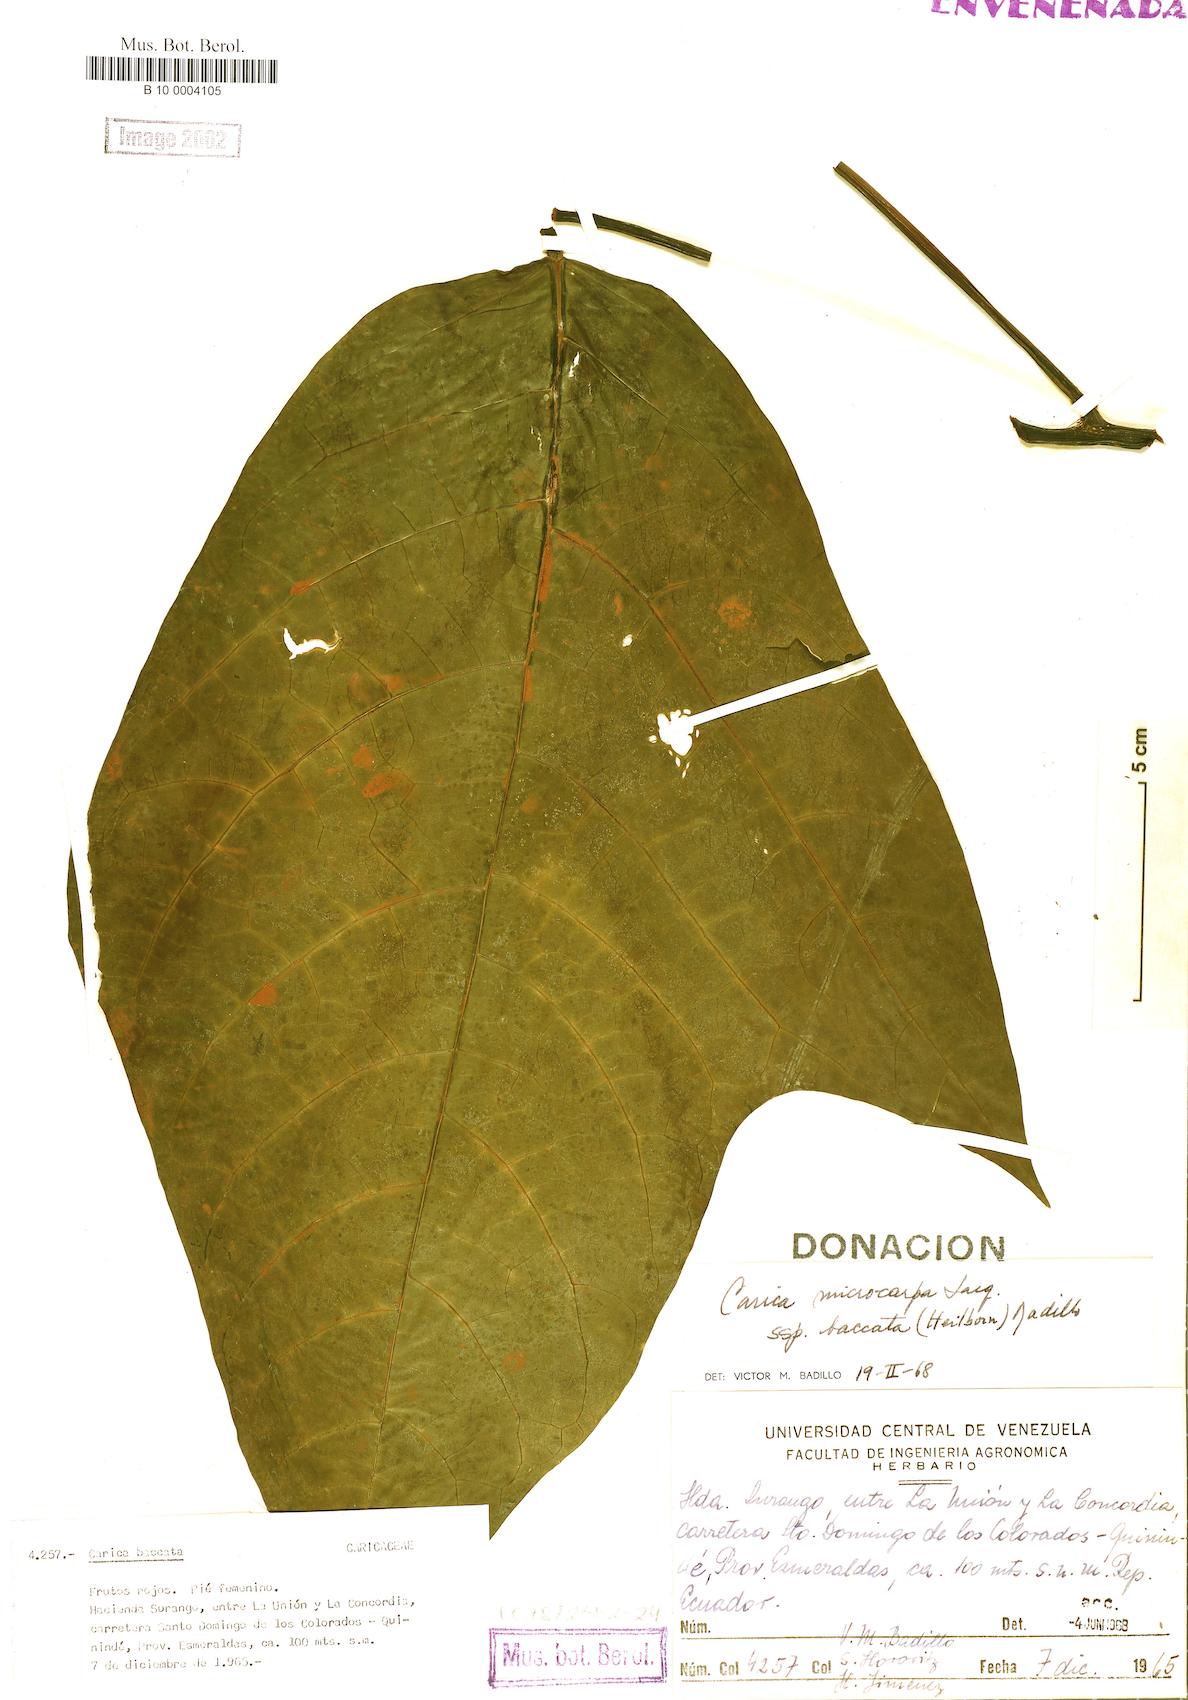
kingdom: Plantae
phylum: Tracheophyta
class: Magnoliopsida
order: Brassicales
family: Caricaceae
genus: Vasconcellea
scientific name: Vasconcellea microcarpa
